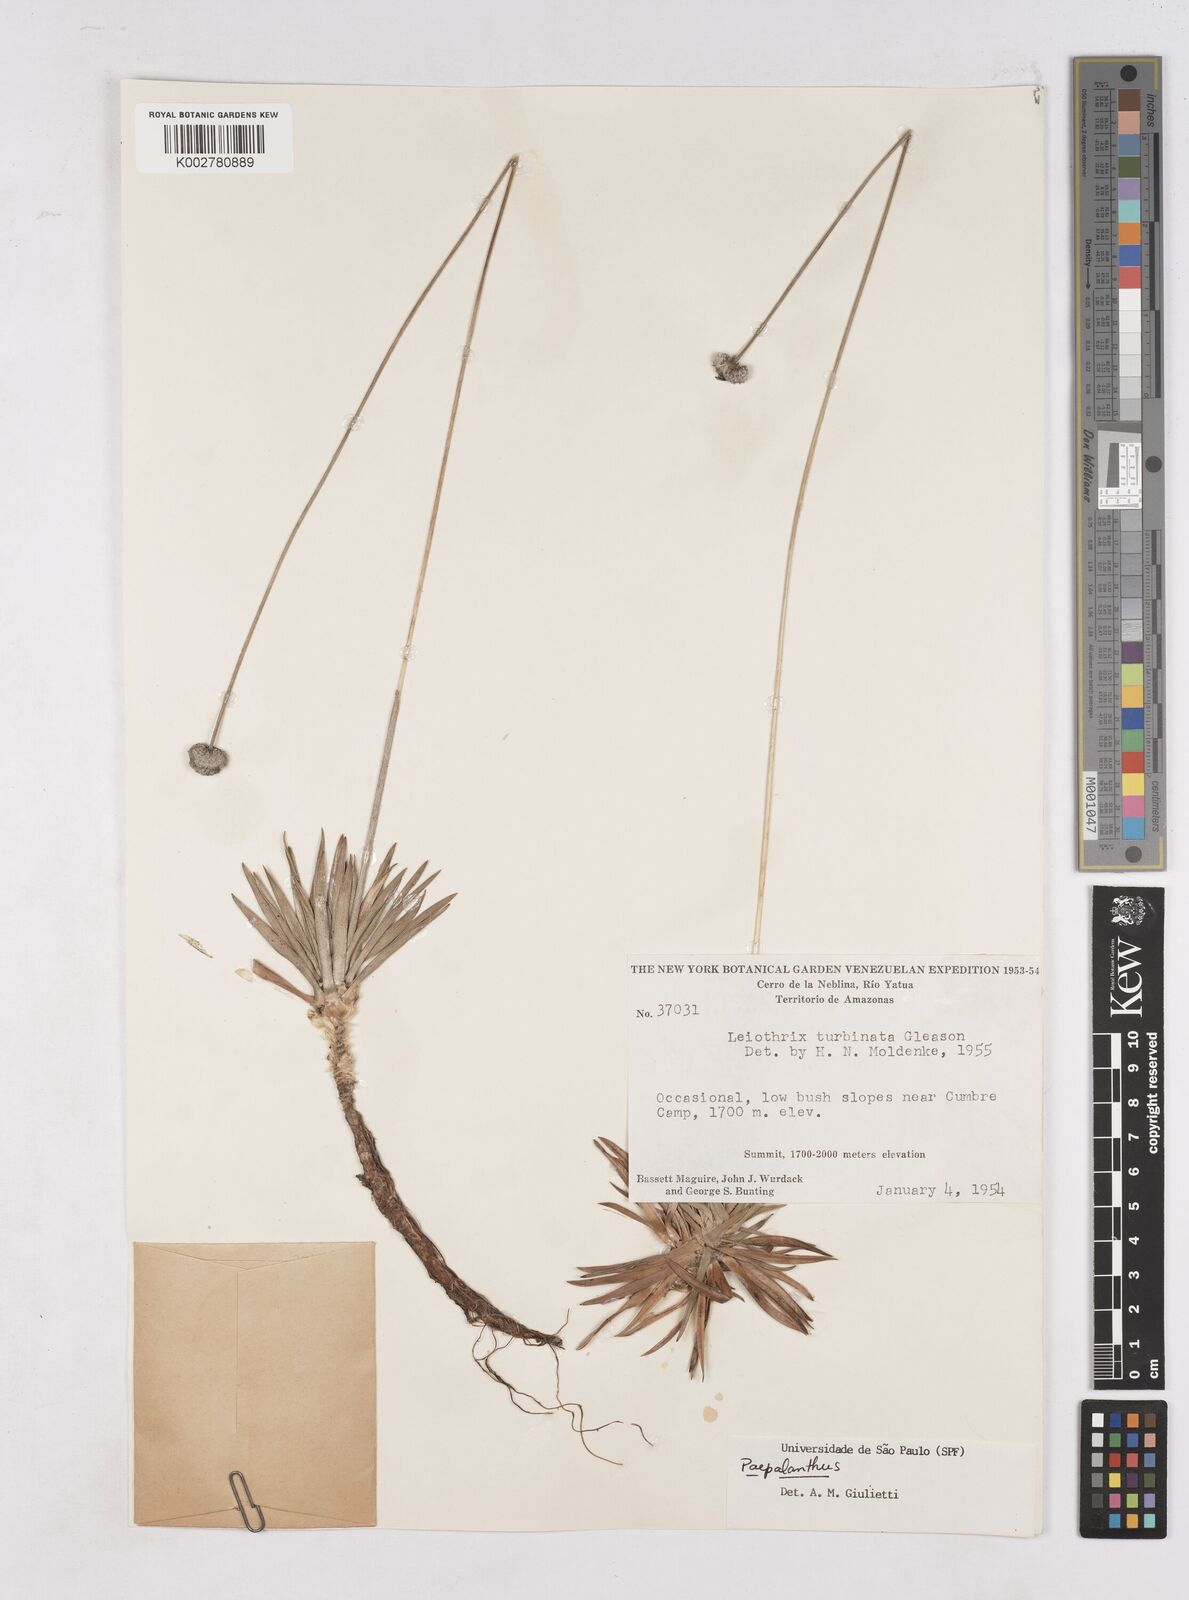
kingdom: Plantae
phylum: Tracheophyta
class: Liliopsida
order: Poales
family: Eriocaulaceae
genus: Paepalanthus
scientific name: Paepalanthus
